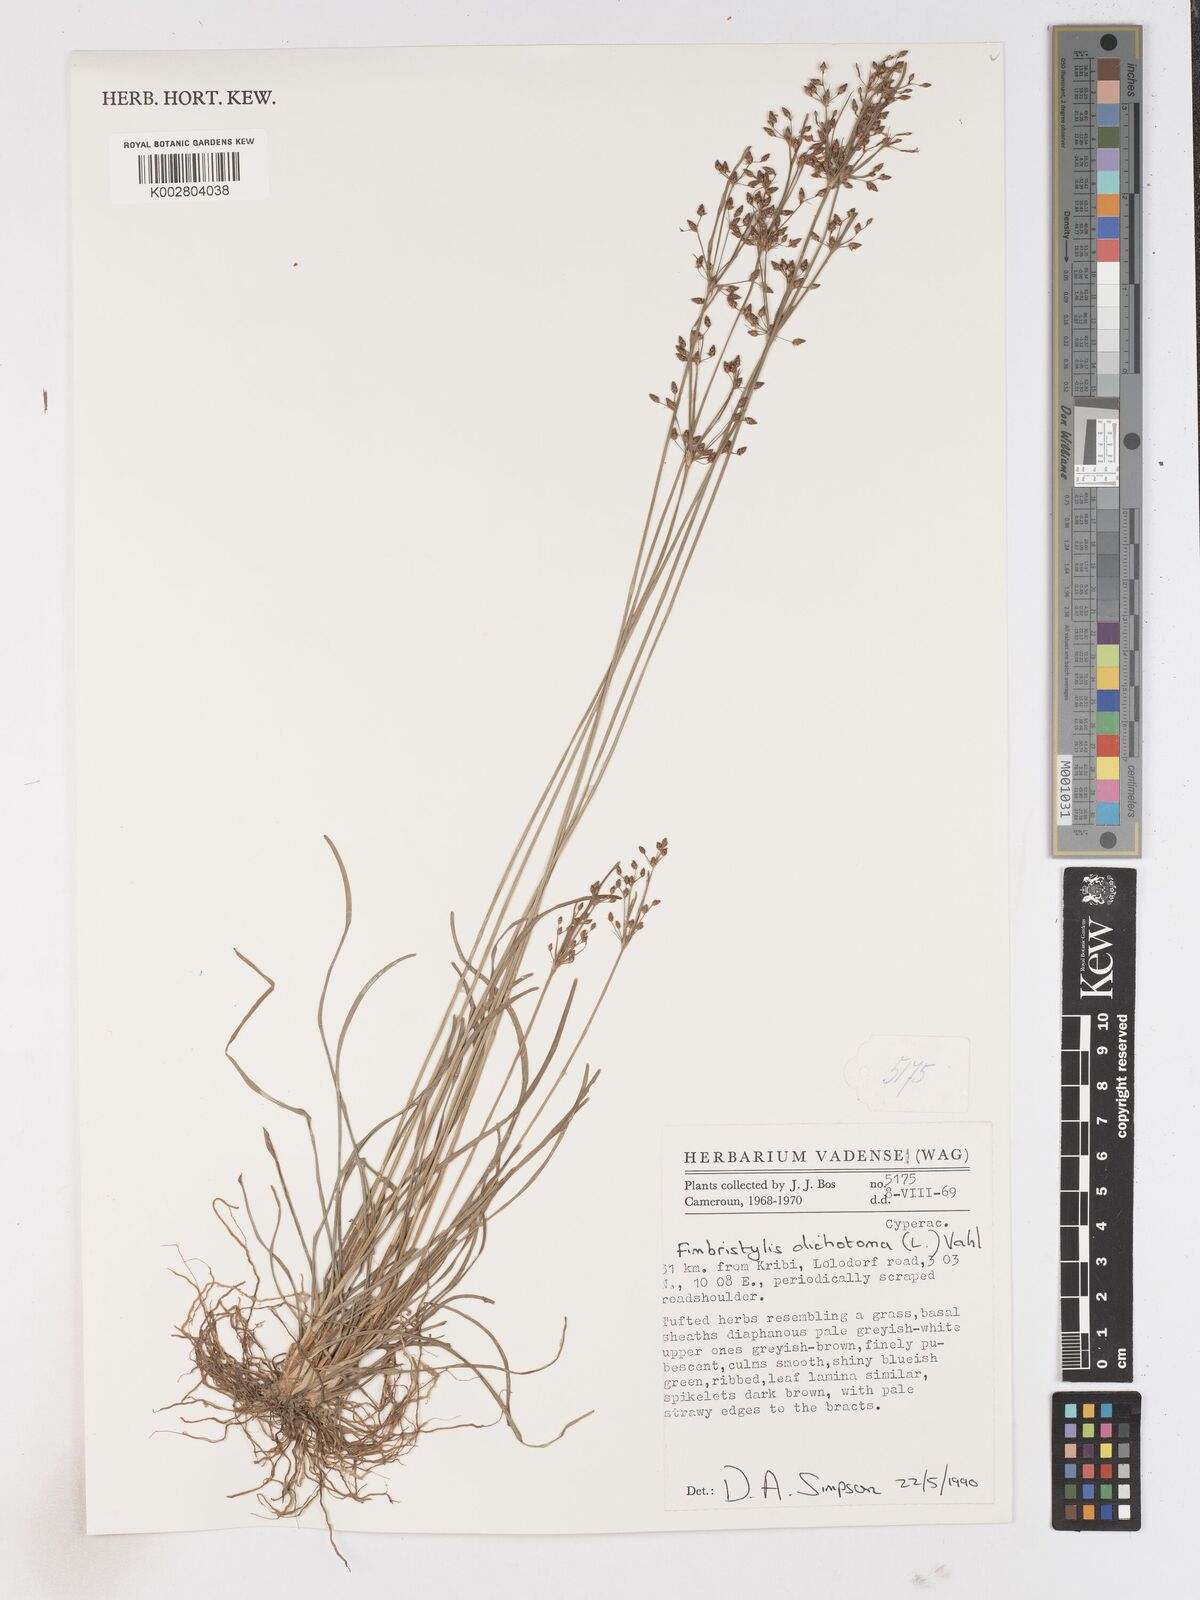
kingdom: Plantae
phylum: Tracheophyta
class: Liliopsida
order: Poales
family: Cyperaceae
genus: Fimbristylis
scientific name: Fimbristylis dichotoma
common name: Forked fimbry
